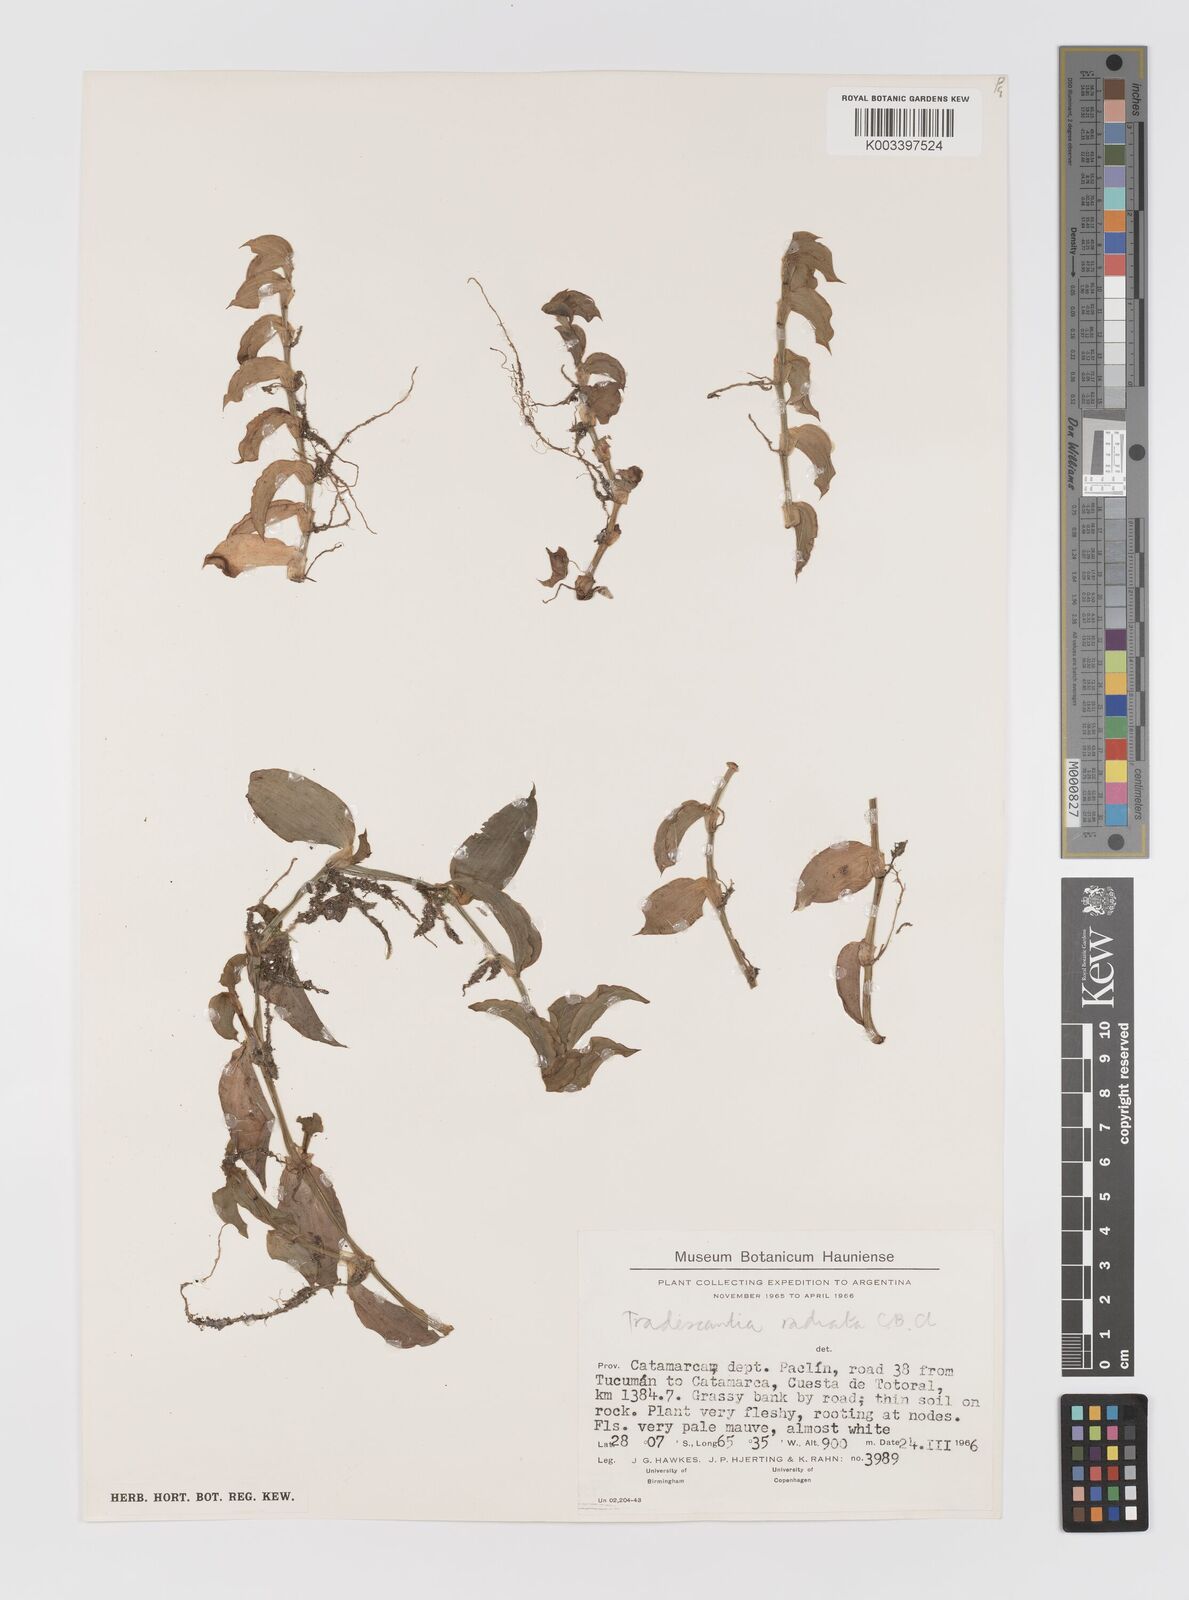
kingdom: Plantae
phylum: Tracheophyta
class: Liliopsida
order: Commelinales
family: Commelinaceae
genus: Callisia
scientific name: Callisia glandulosa
